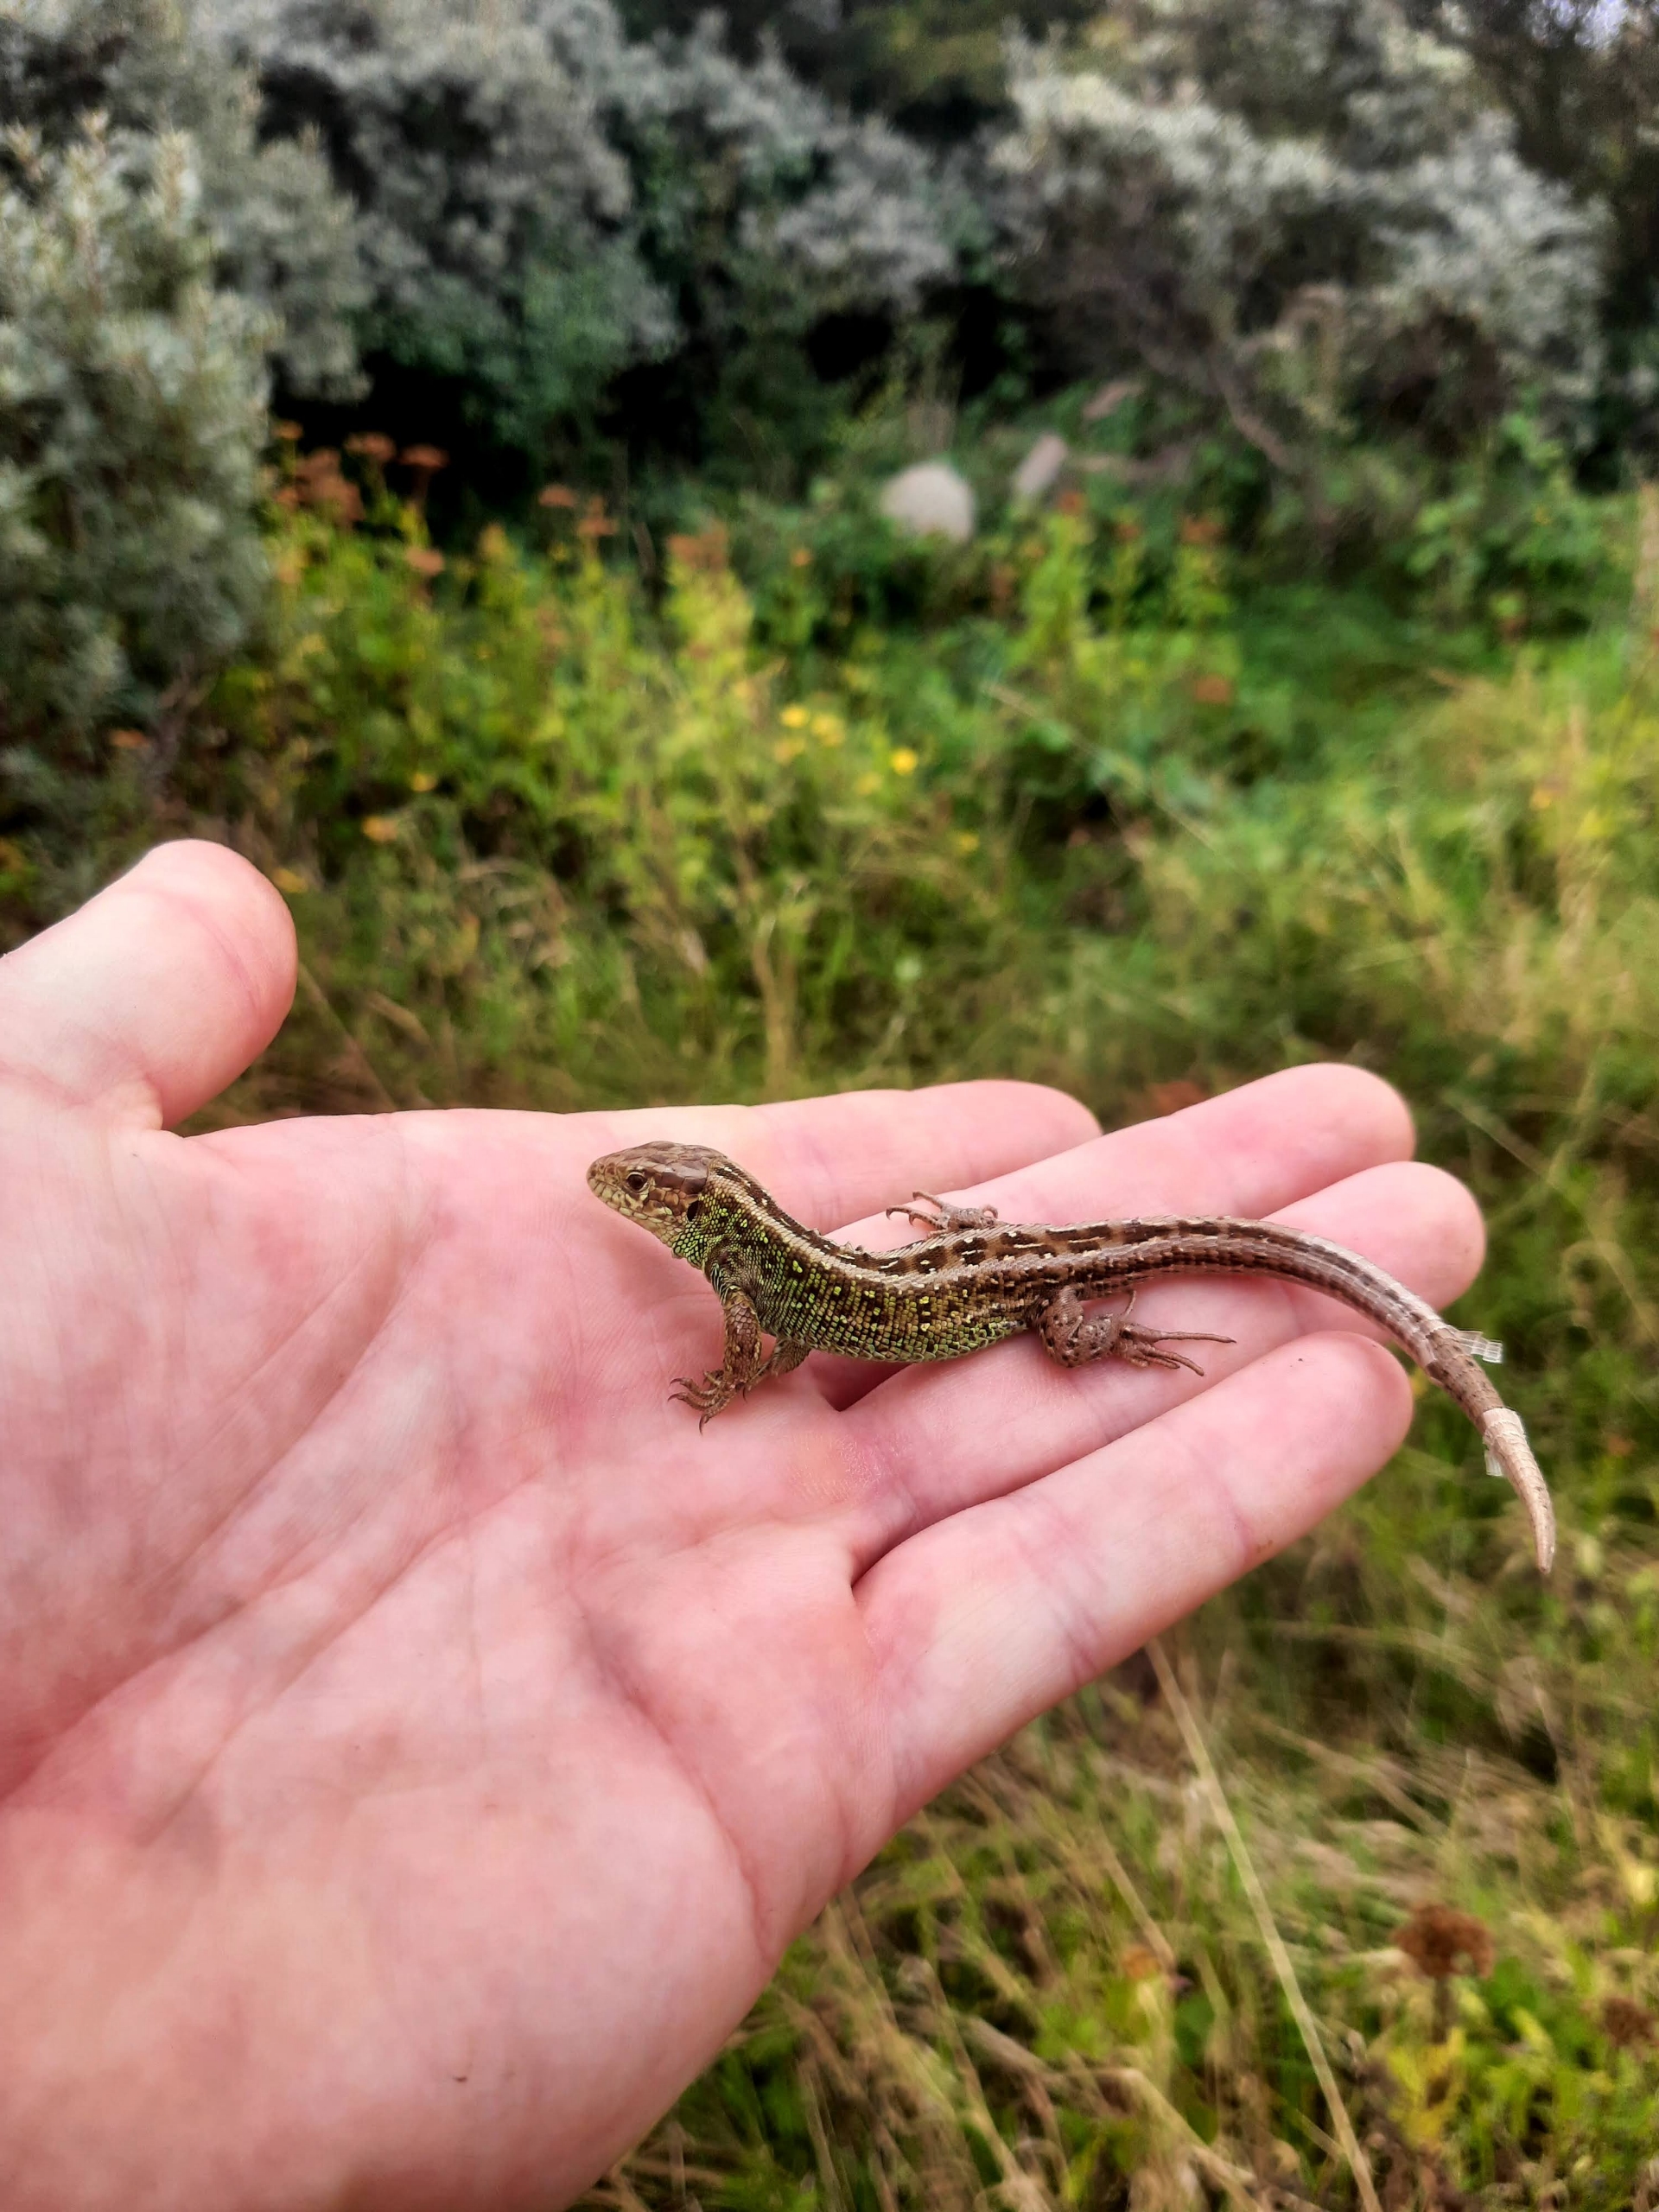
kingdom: Animalia
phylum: Chordata
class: Squamata
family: Lacertidae
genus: Lacerta
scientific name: Lacerta agilis
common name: Markfirben
